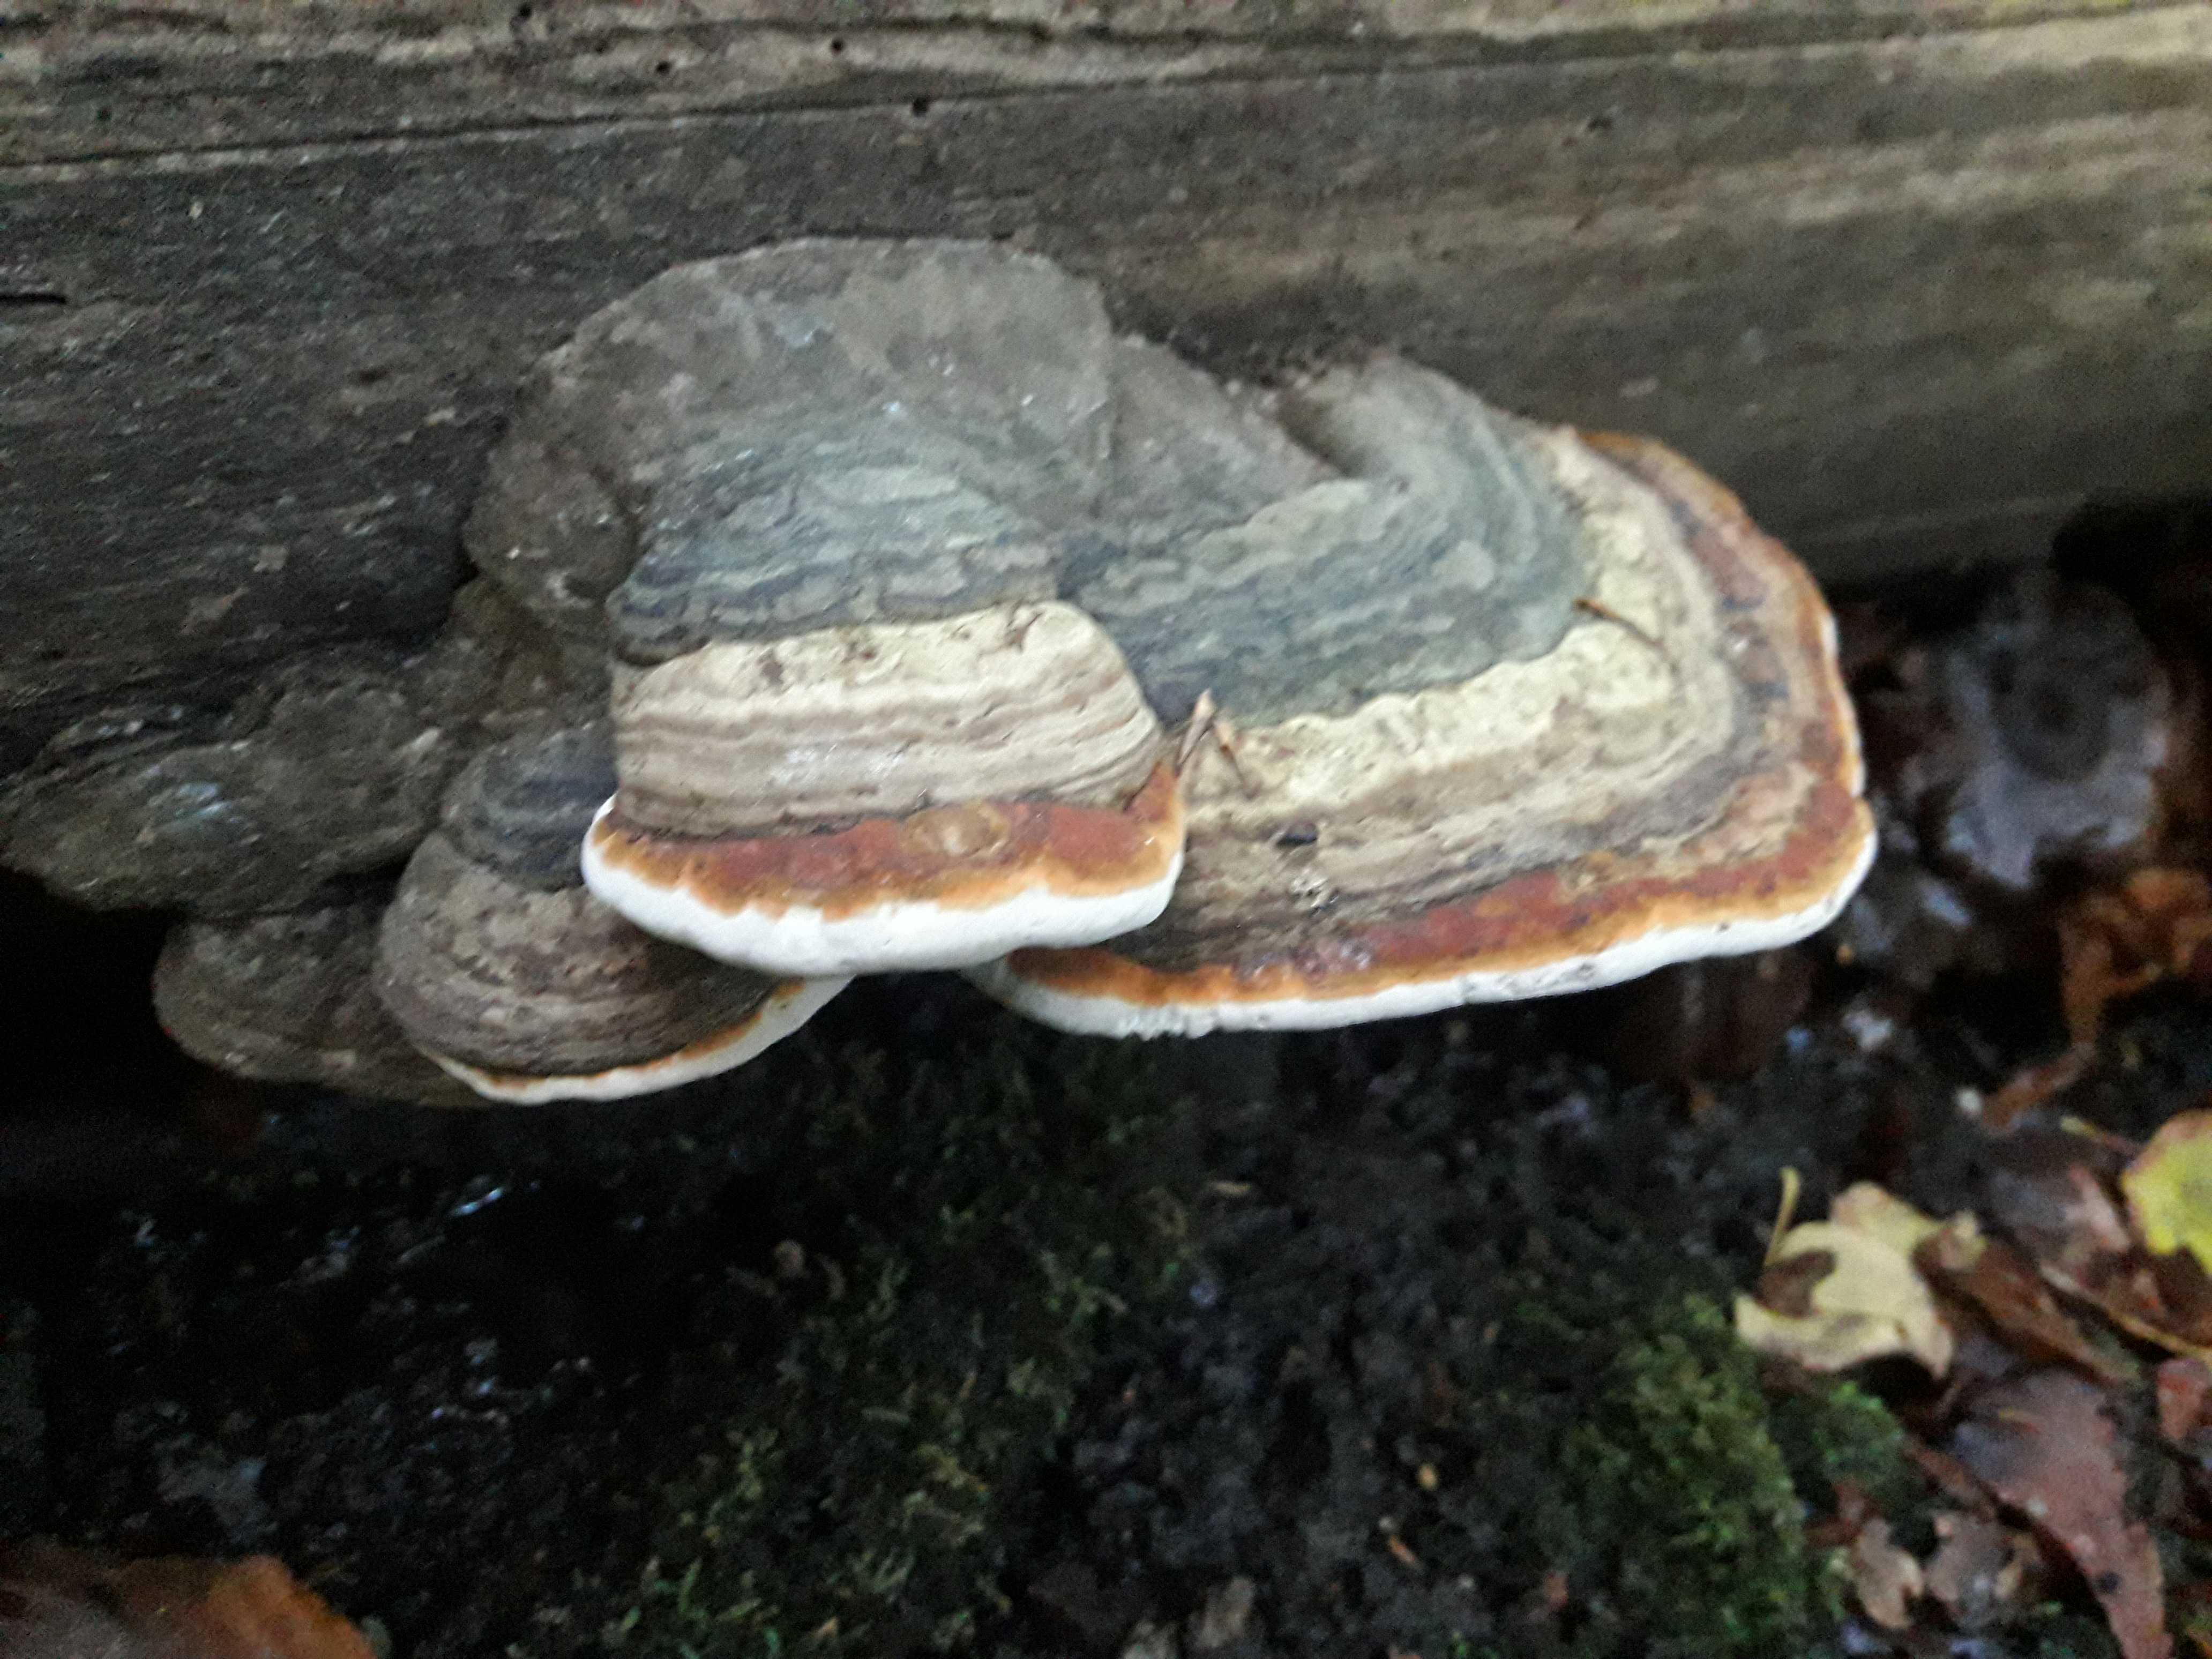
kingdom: Fungi
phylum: Basidiomycota
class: Agaricomycetes
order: Polyporales
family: Polyporaceae
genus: Fomes
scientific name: Fomes fomentarius
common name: tøndersvamp
